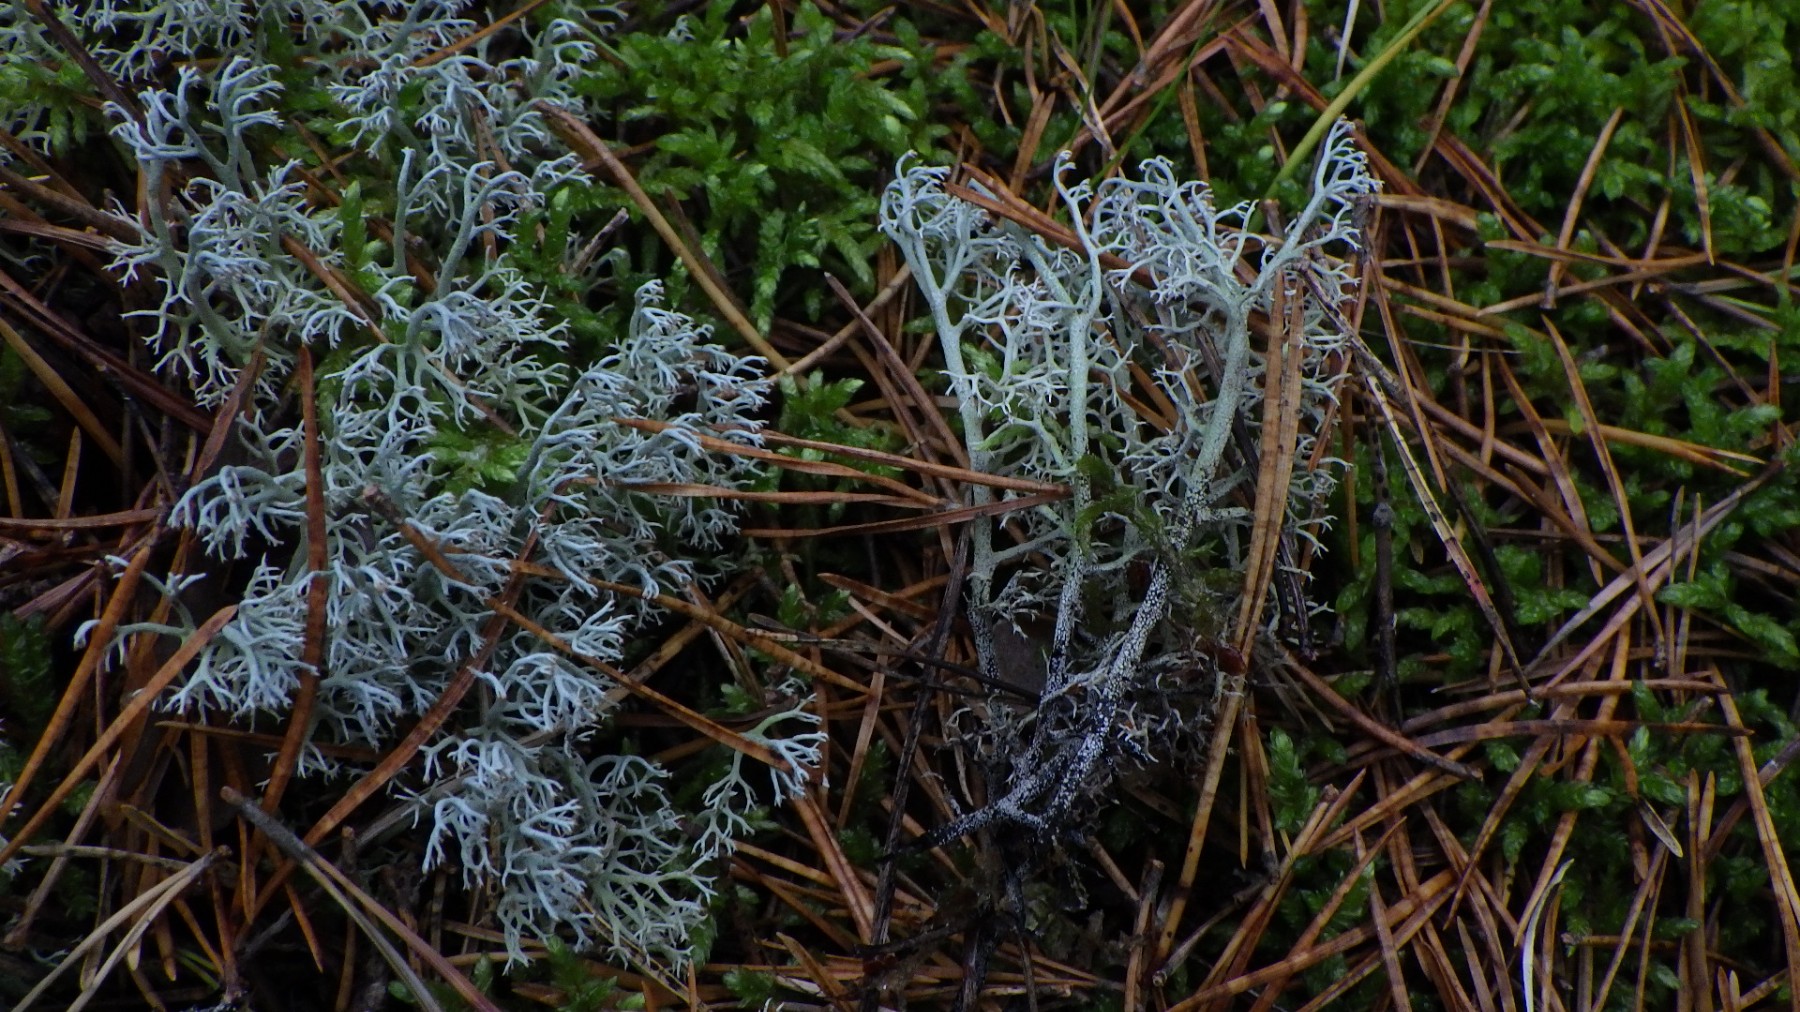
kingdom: Fungi
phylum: Ascomycota
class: Lecanoromycetes
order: Lecanorales
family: Cladoniaceae
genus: Cladonia
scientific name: Cladonia stygia
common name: styg rensdyrlav
